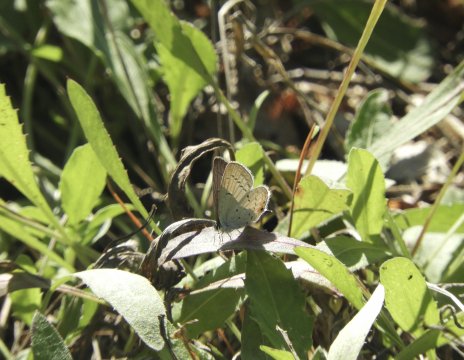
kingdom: Animalia
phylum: Arthropoda
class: Insecta
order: Lepidoptera
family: Lycaenidae
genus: Elkalyce
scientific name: Elkalyce comyntas
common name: Eastern Tailed-Blue
